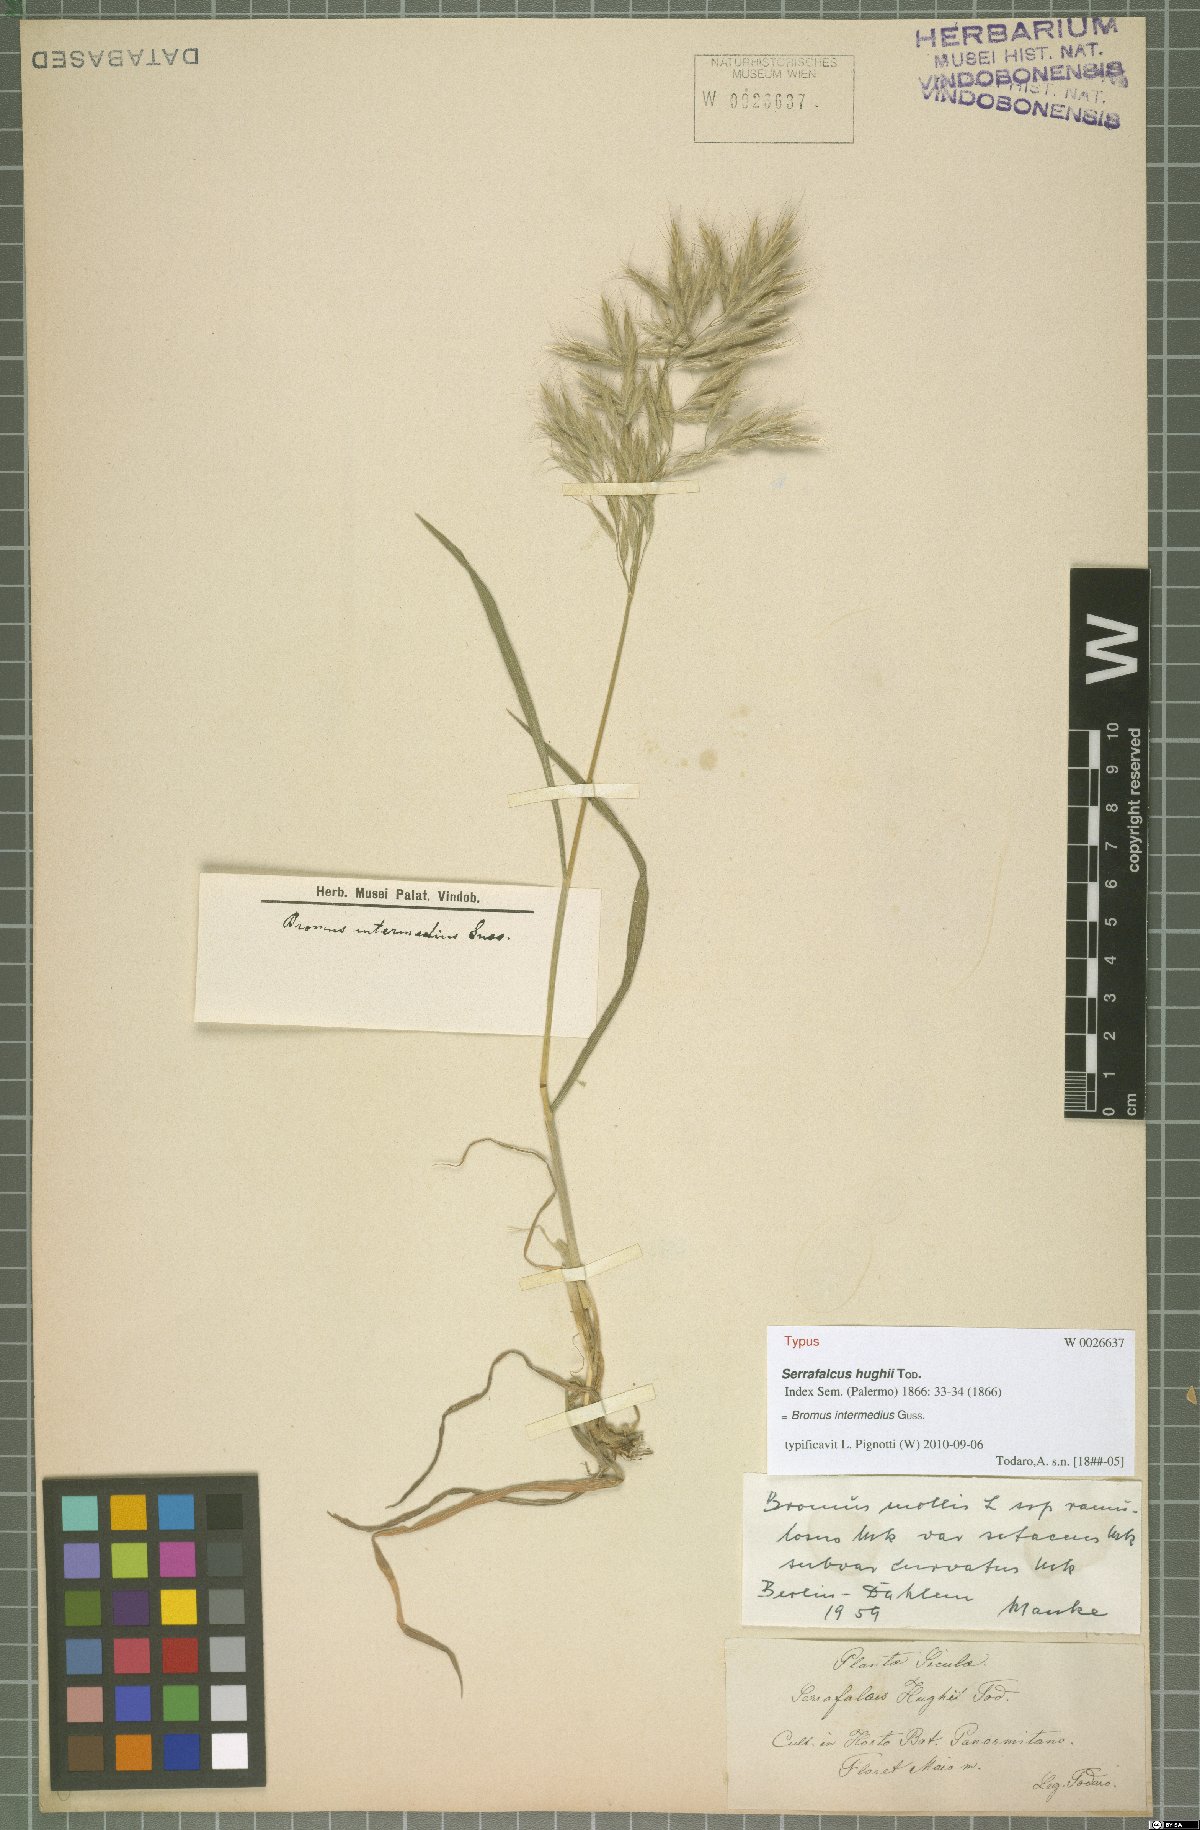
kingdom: Plantae
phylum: Tracheophyta
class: Liliopsida
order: Poales
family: Poaceae
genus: Bromus
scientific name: Bromus intermedius
